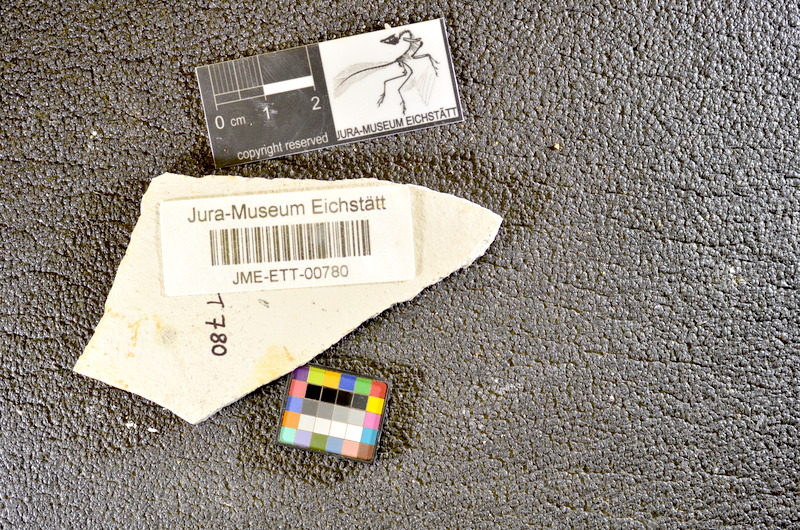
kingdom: Animalia
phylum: Chordata
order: Salmoniformes
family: Orthogonikleithridae
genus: Orthogonikleithrus
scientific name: Orthogonikleithrus hoelli
